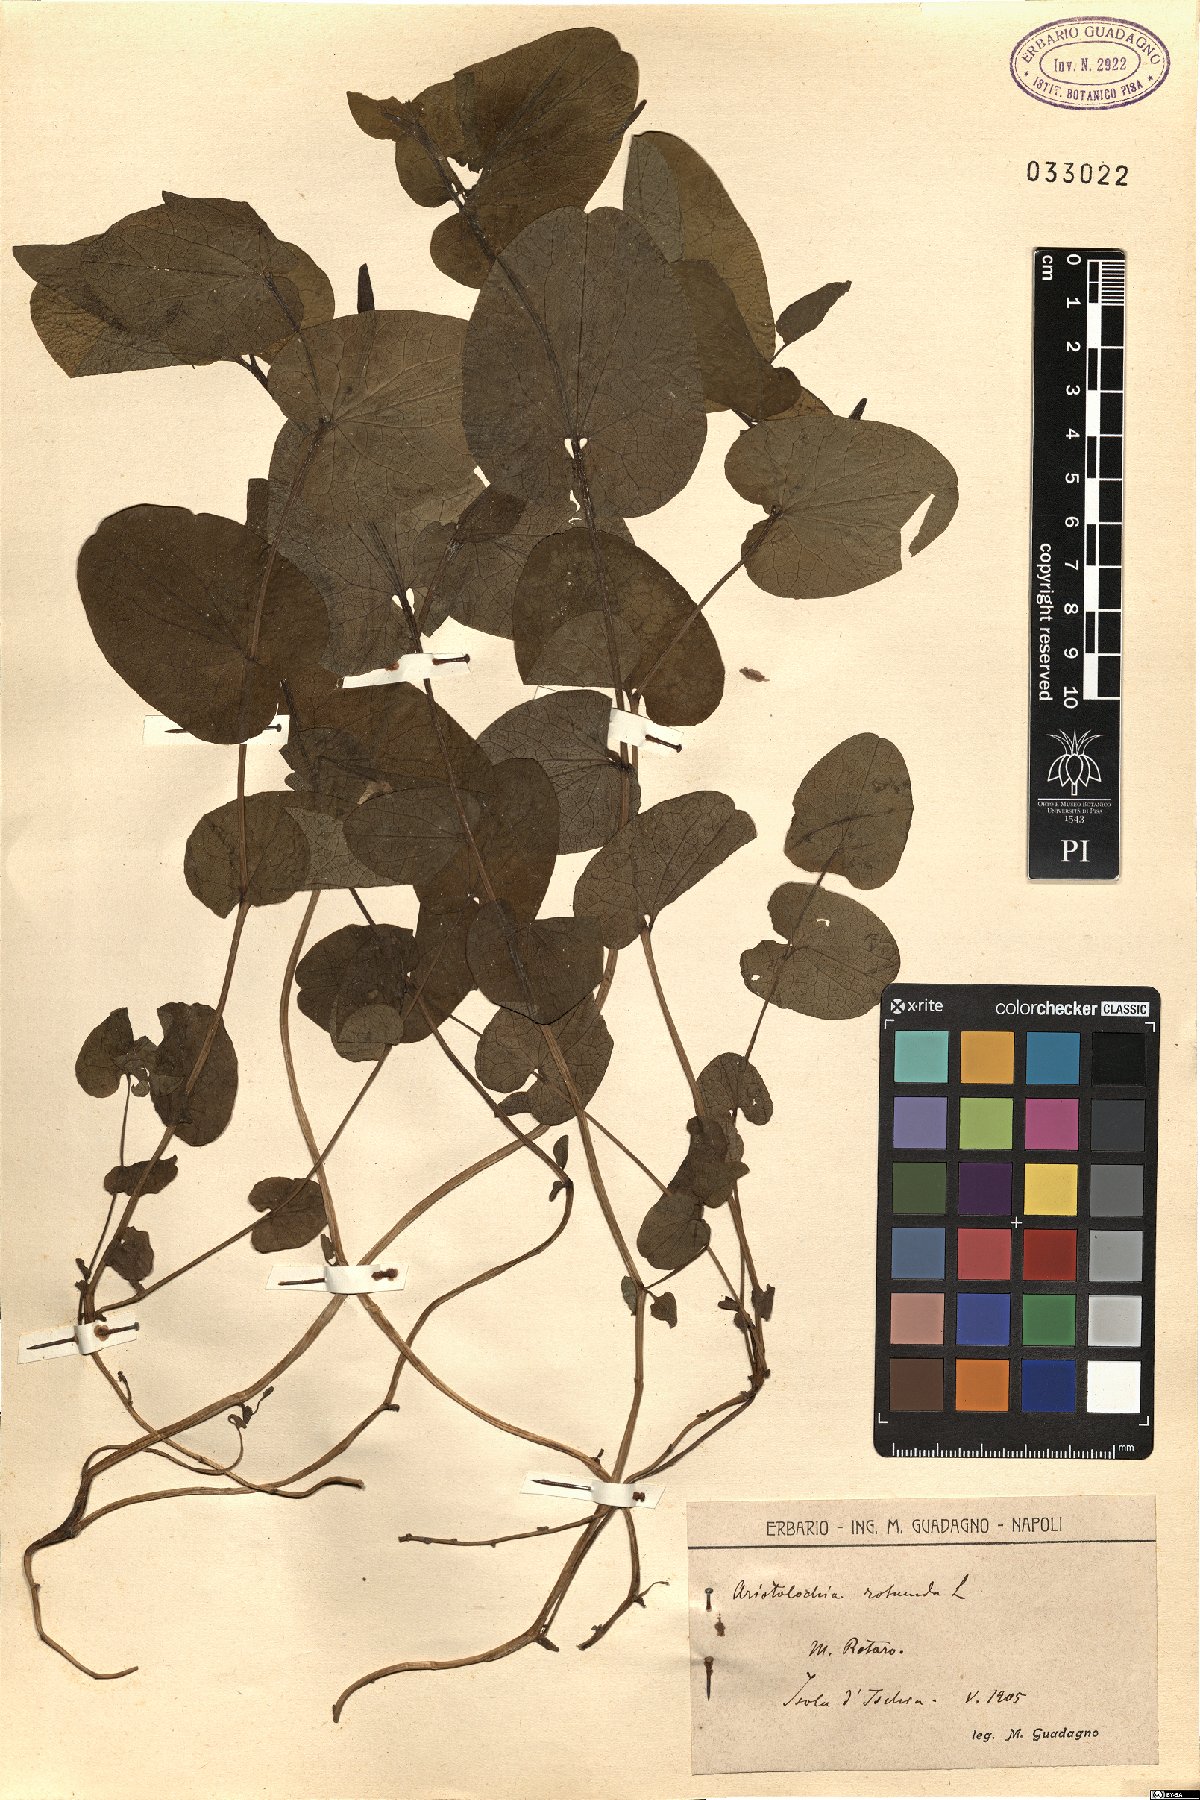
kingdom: Plantae
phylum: Tracheophyta
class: Magnoliopsida
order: Piperales
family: Aristolochiaceae
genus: Aristolochia
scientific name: Aristolochia rotunda
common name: Smearwort
